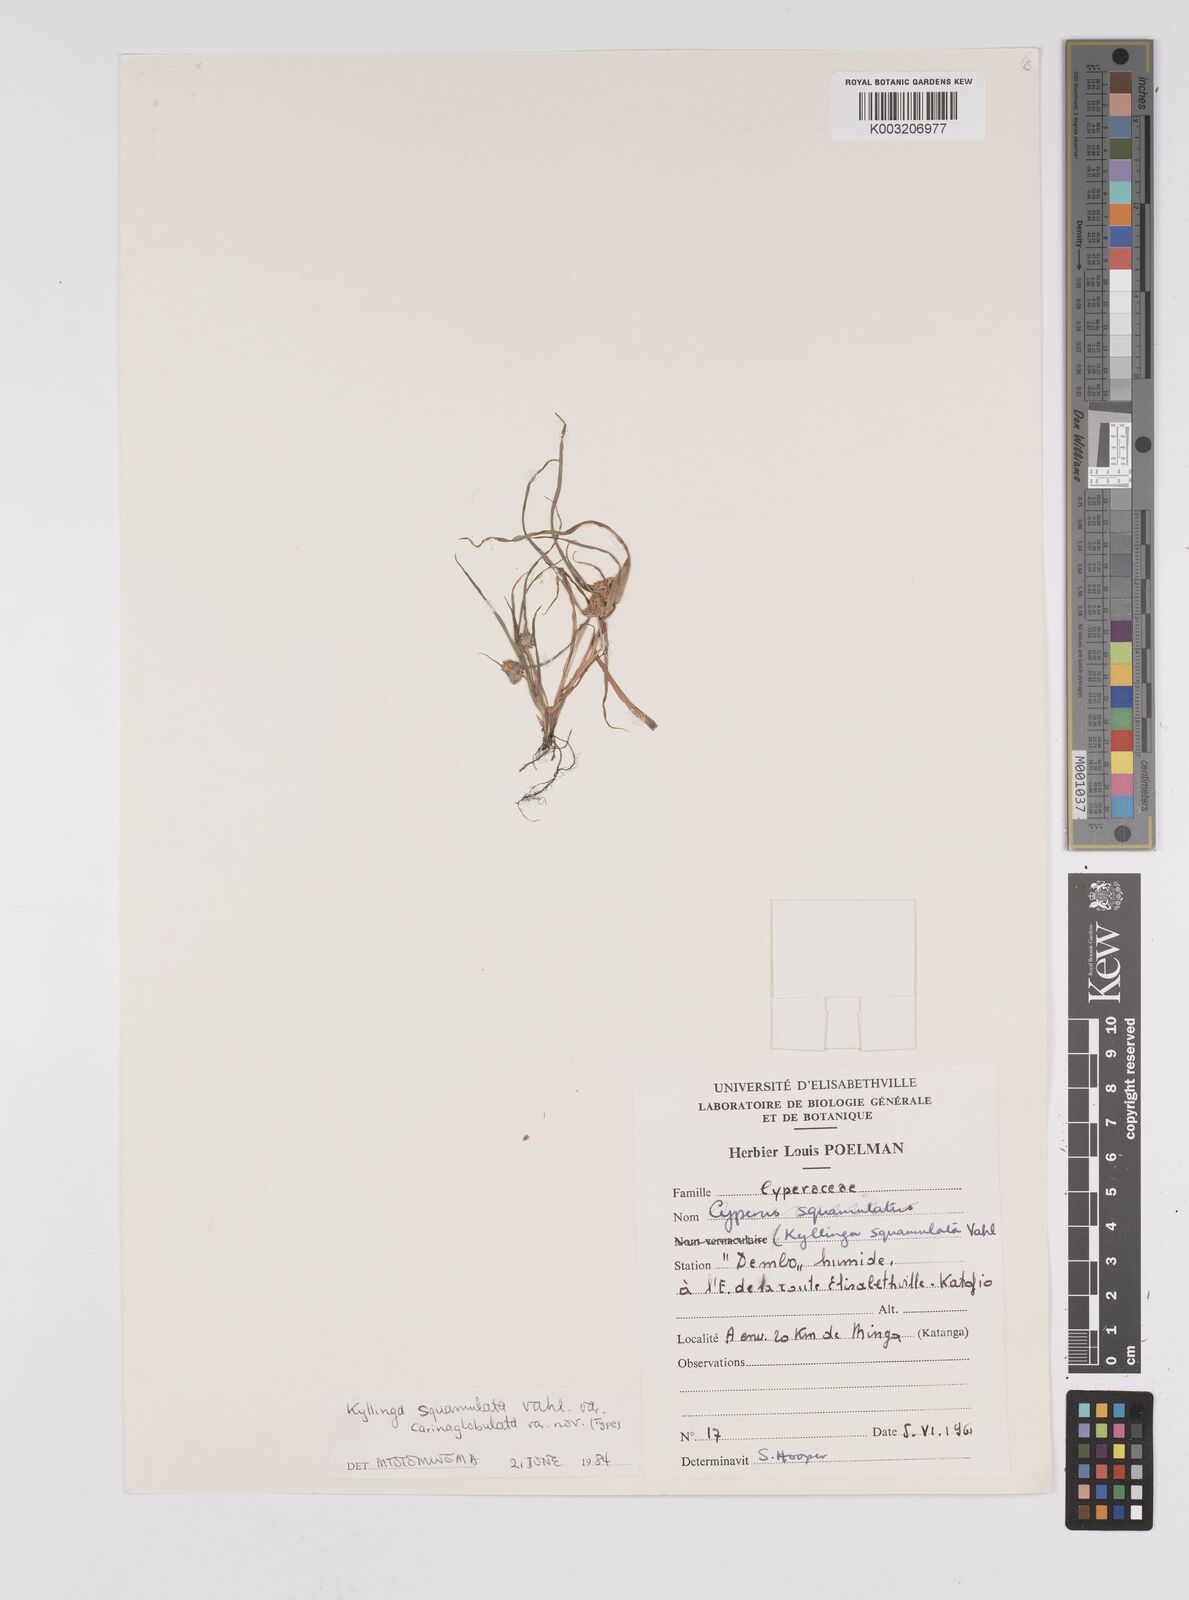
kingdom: Plantae
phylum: Tracheophyta
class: Liliopsida
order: Poales
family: Cyperaceae
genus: Cyperus
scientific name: Cyperus distans
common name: Slender cyperus
